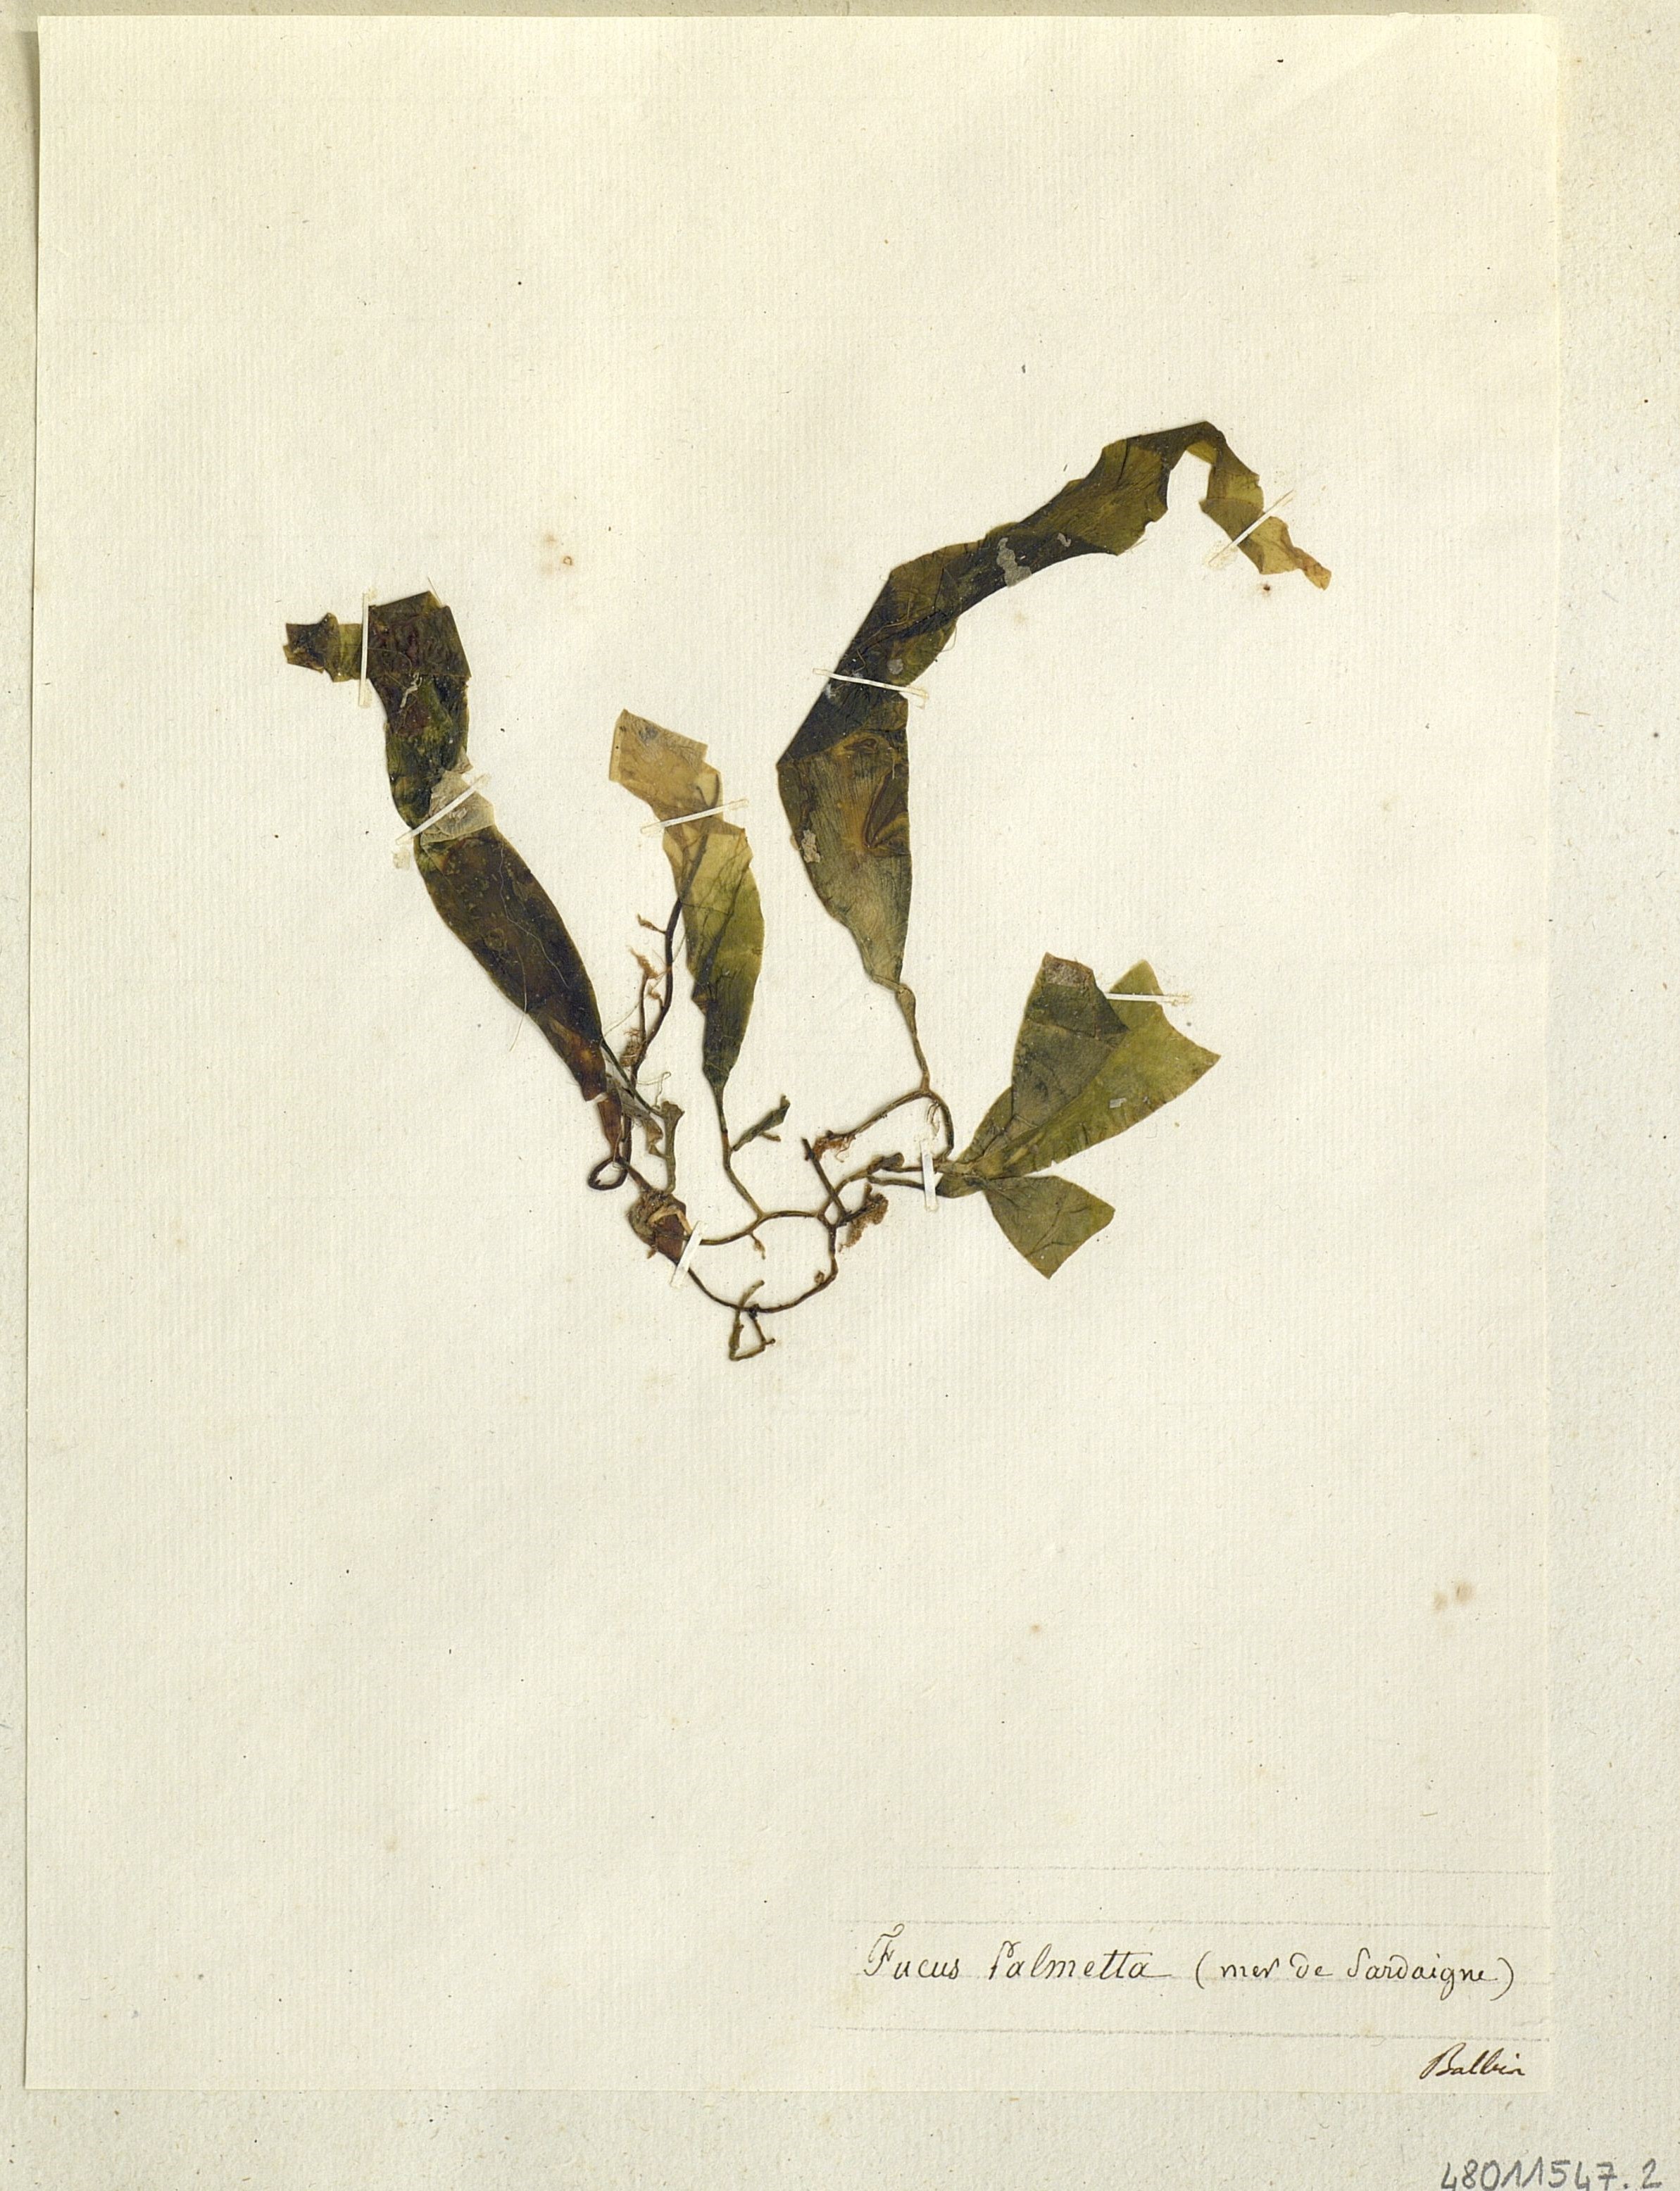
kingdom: Chromista
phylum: Ochrophyta
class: Phaeophyceae
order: Fucales
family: Fucaceae
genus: Fucus
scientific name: Fucus
